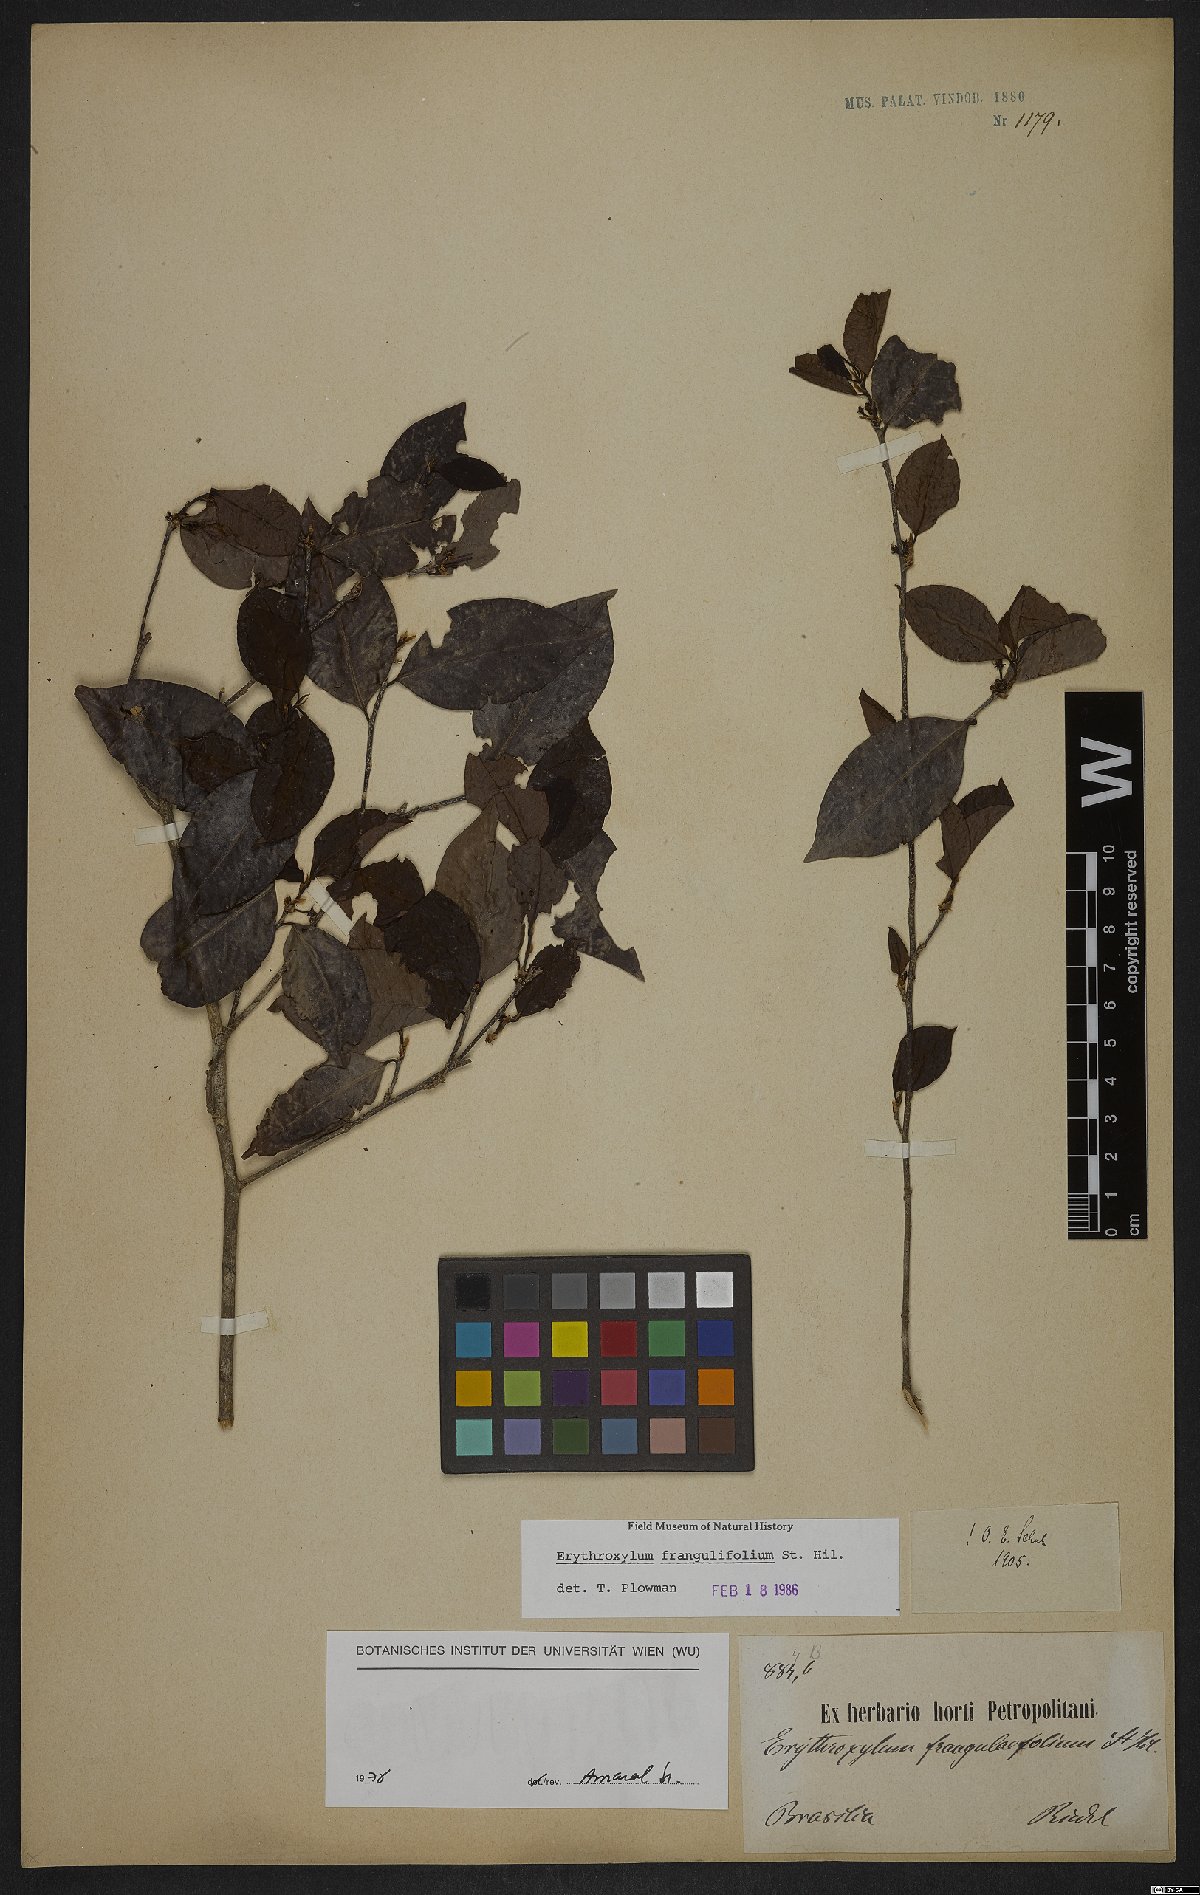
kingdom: Plantae
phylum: Tracheophyta
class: Magnoliopsida
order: Malpighiales
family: Erythroxylaceae
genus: Erythroxylum
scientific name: Erythroxylum frangulifolium
